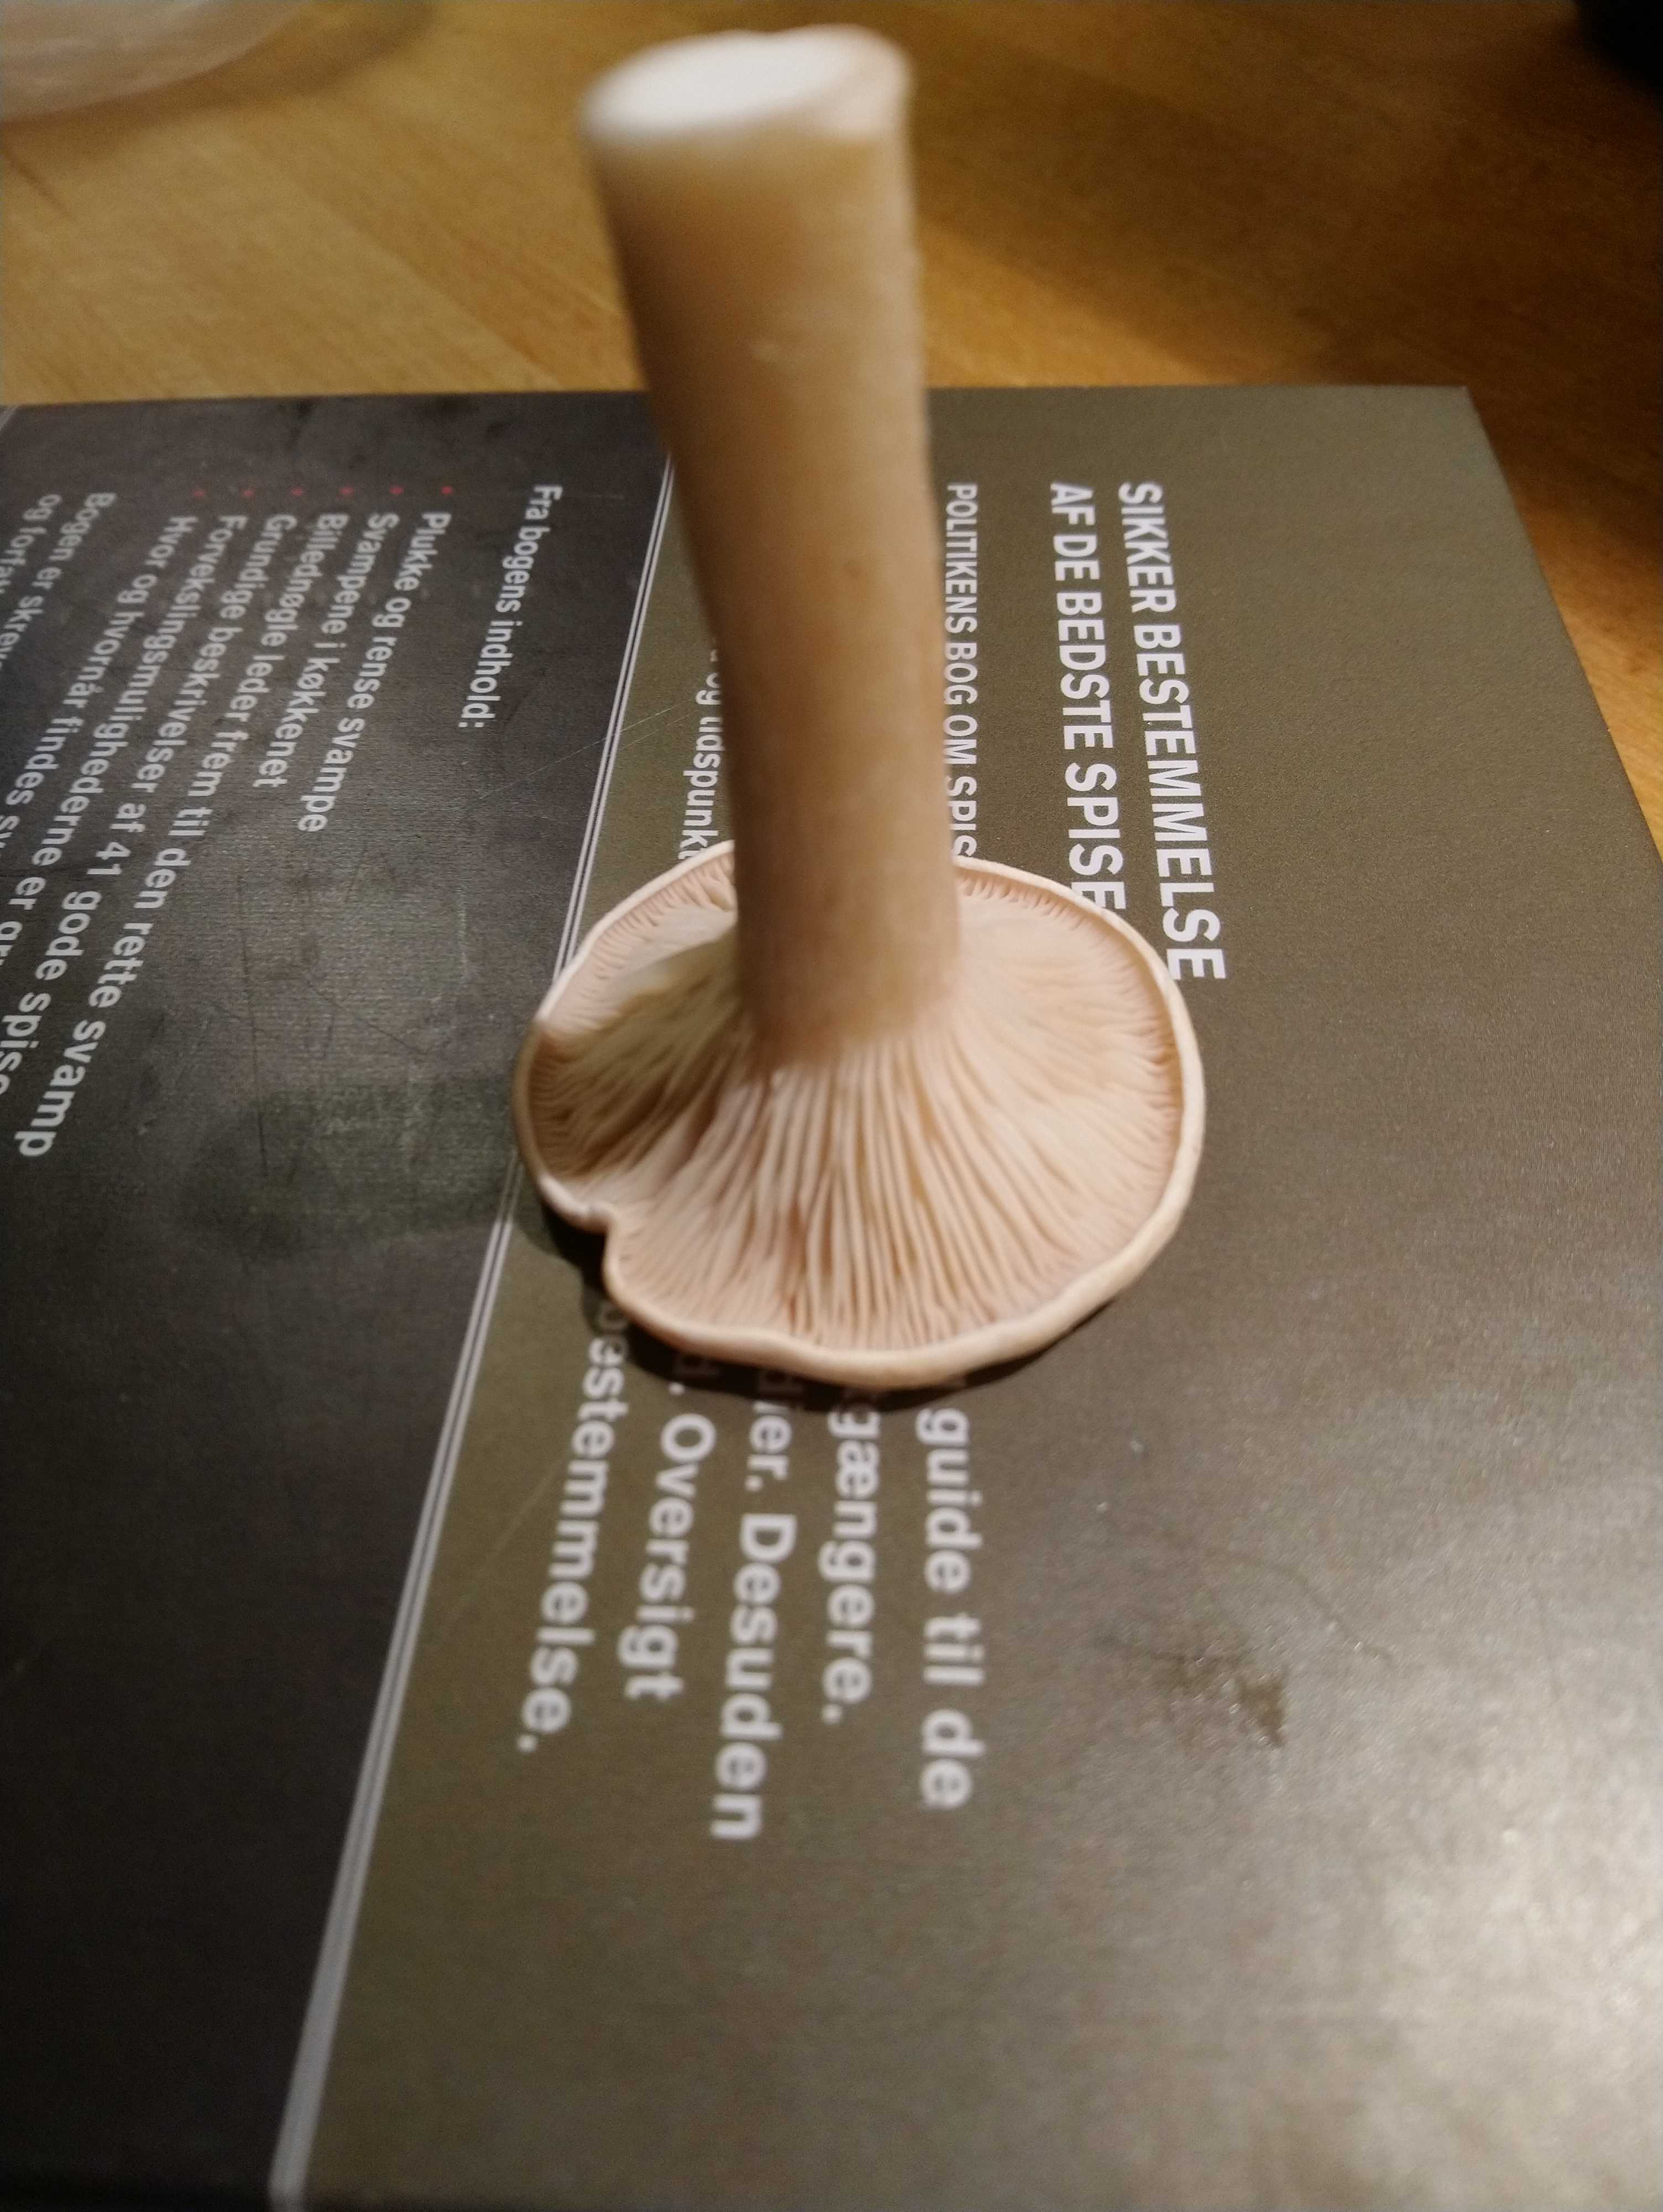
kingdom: Fungi
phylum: Basidiomycota
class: Agaricomycetes
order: Agaricales
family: Tricholomataceae
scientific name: Tricholomataceae
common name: ridderhatfamilien
